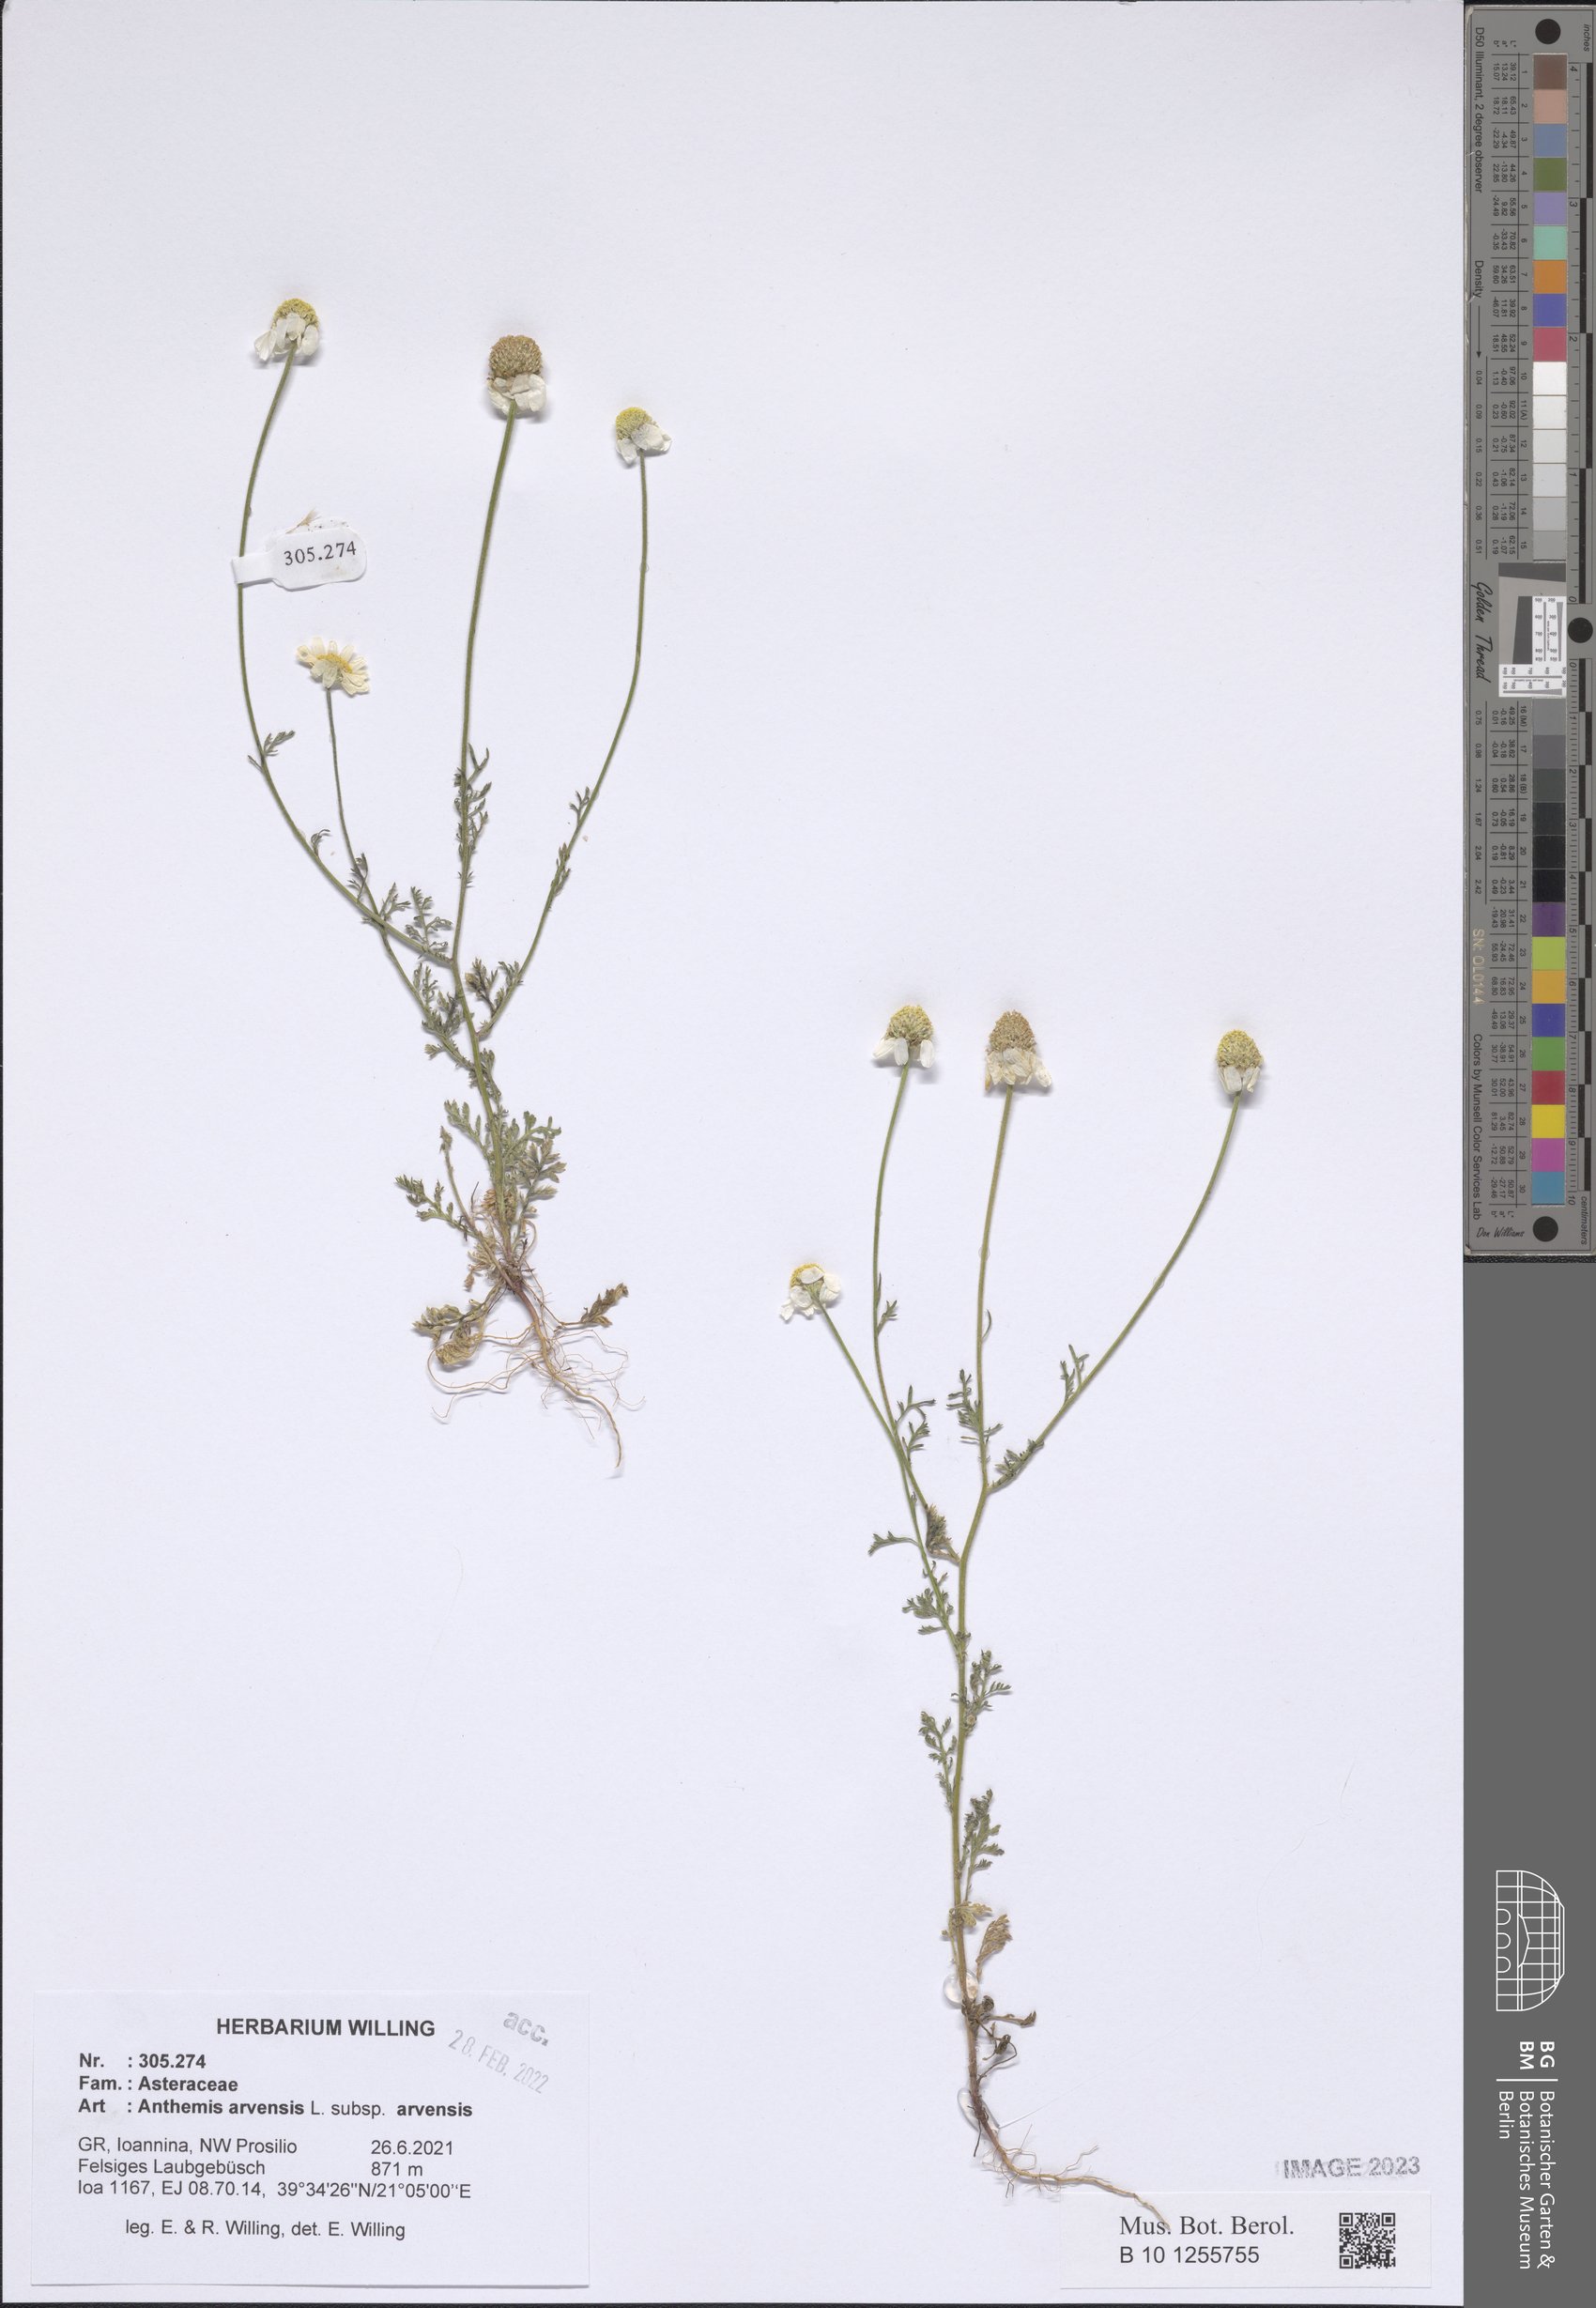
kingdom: Plantae
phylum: Tracheophyta
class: Magnoliopsida
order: Asterales
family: Asteraceae
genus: Anthemis
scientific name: Anthemis arvensis
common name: Corn chamomile
